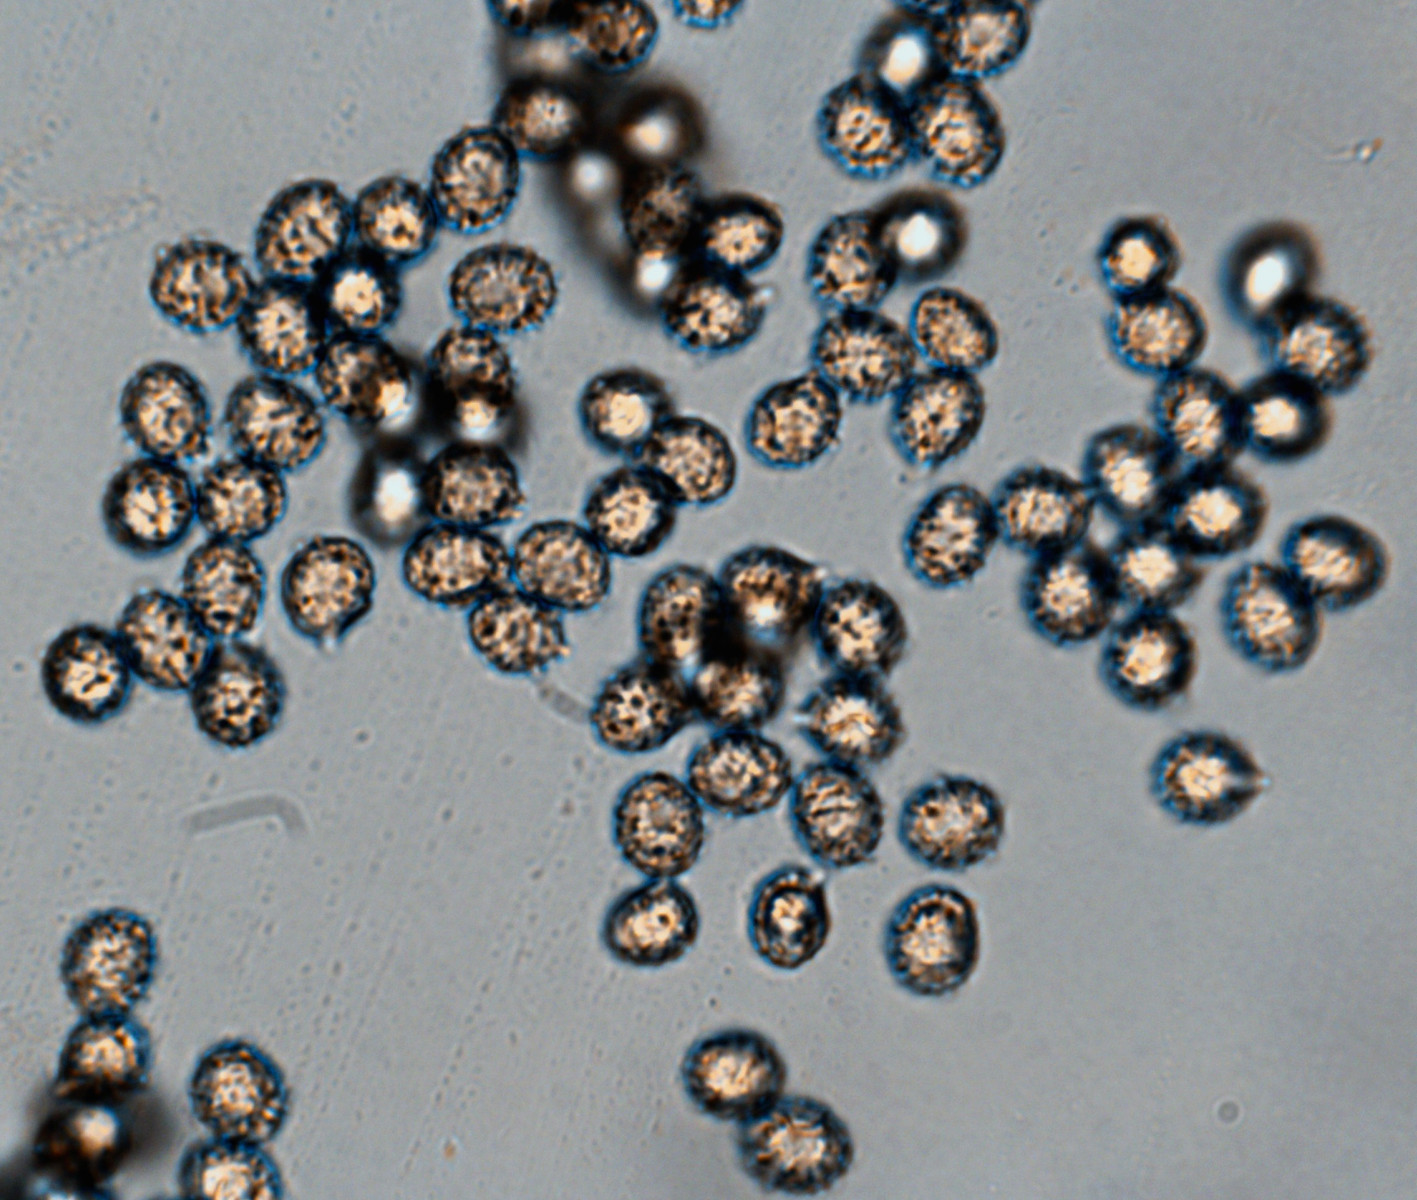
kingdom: Fungi
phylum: Basidiomycota
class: Agaricomycetes
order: Russulales
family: Russulaceae
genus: Russula
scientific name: Russula versicolor
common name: foranderlig skørhat
